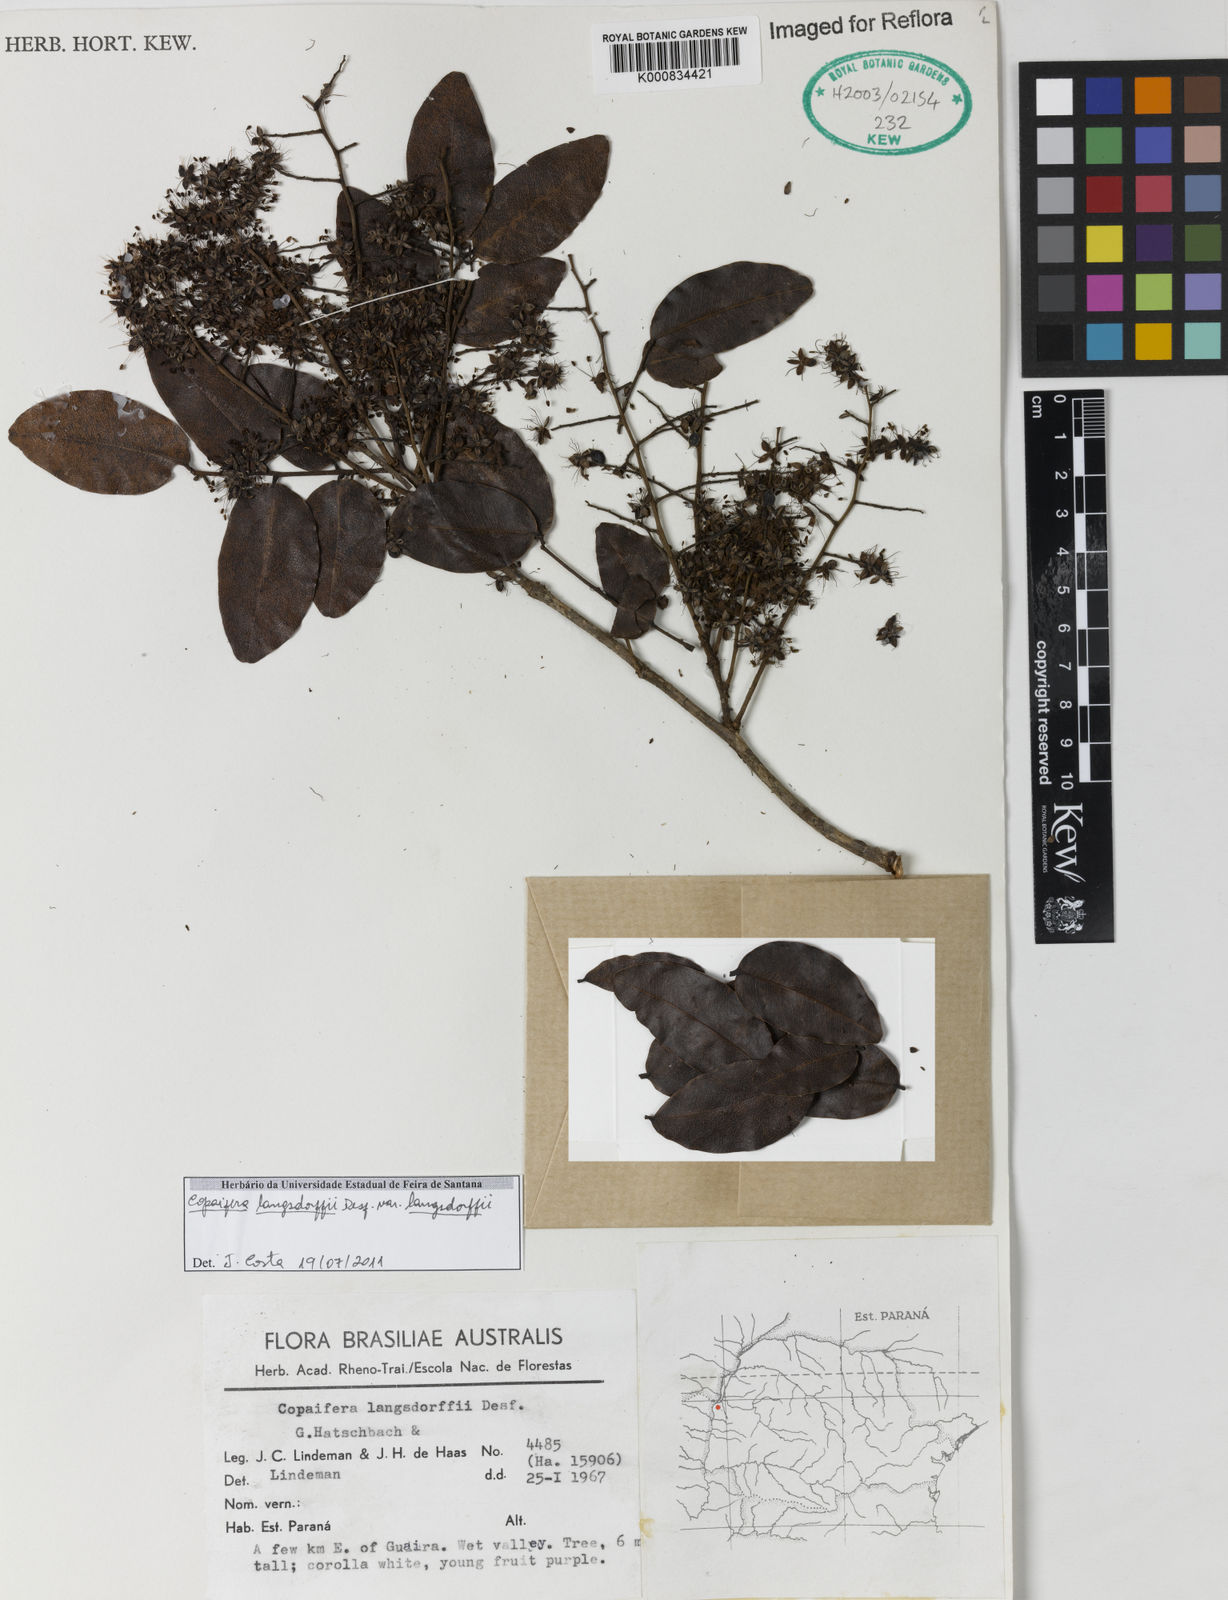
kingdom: Plantae
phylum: Tracheophyta
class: Magnoliopsida
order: Fabales
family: Fabaceae
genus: Copaifera
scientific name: Copaifera langsdorffii
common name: Brazilian diesel tree
